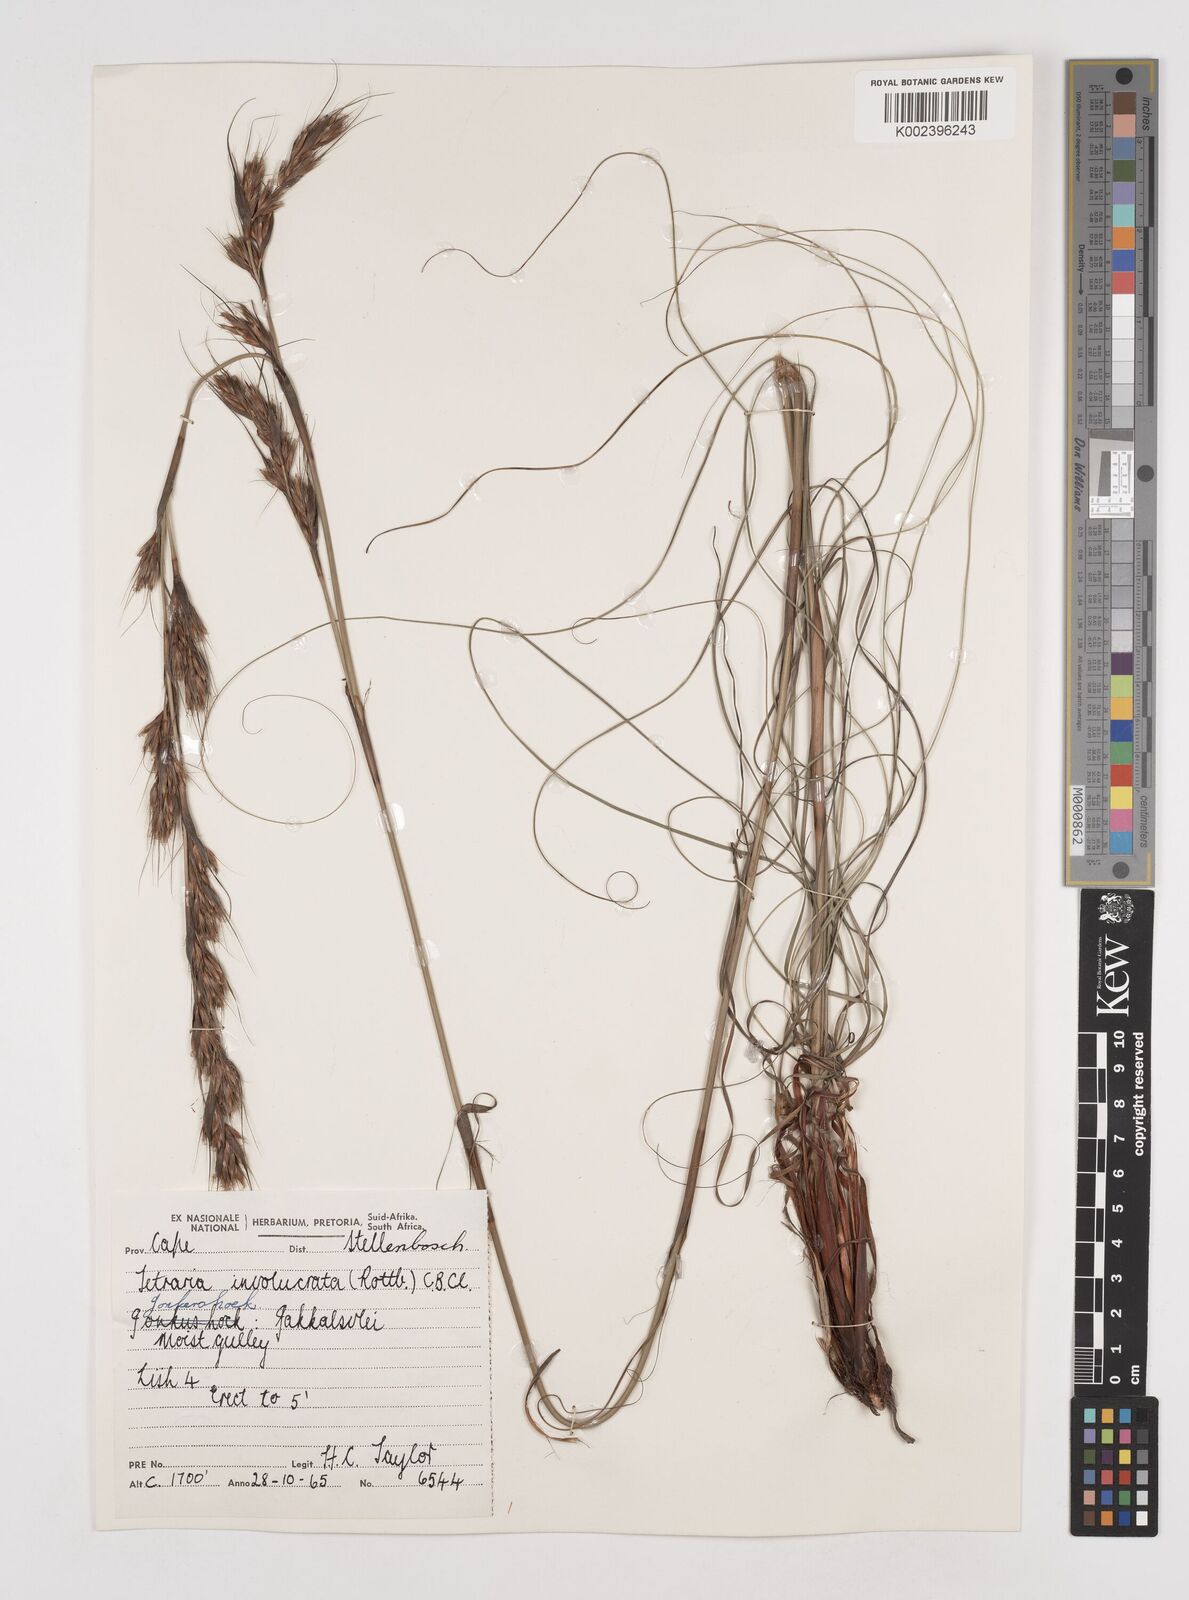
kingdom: Plantae
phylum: Tracheophyta
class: Liliopsida
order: Poales
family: Cyperaceae
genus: Tetraria
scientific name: Tetraria involucrata
